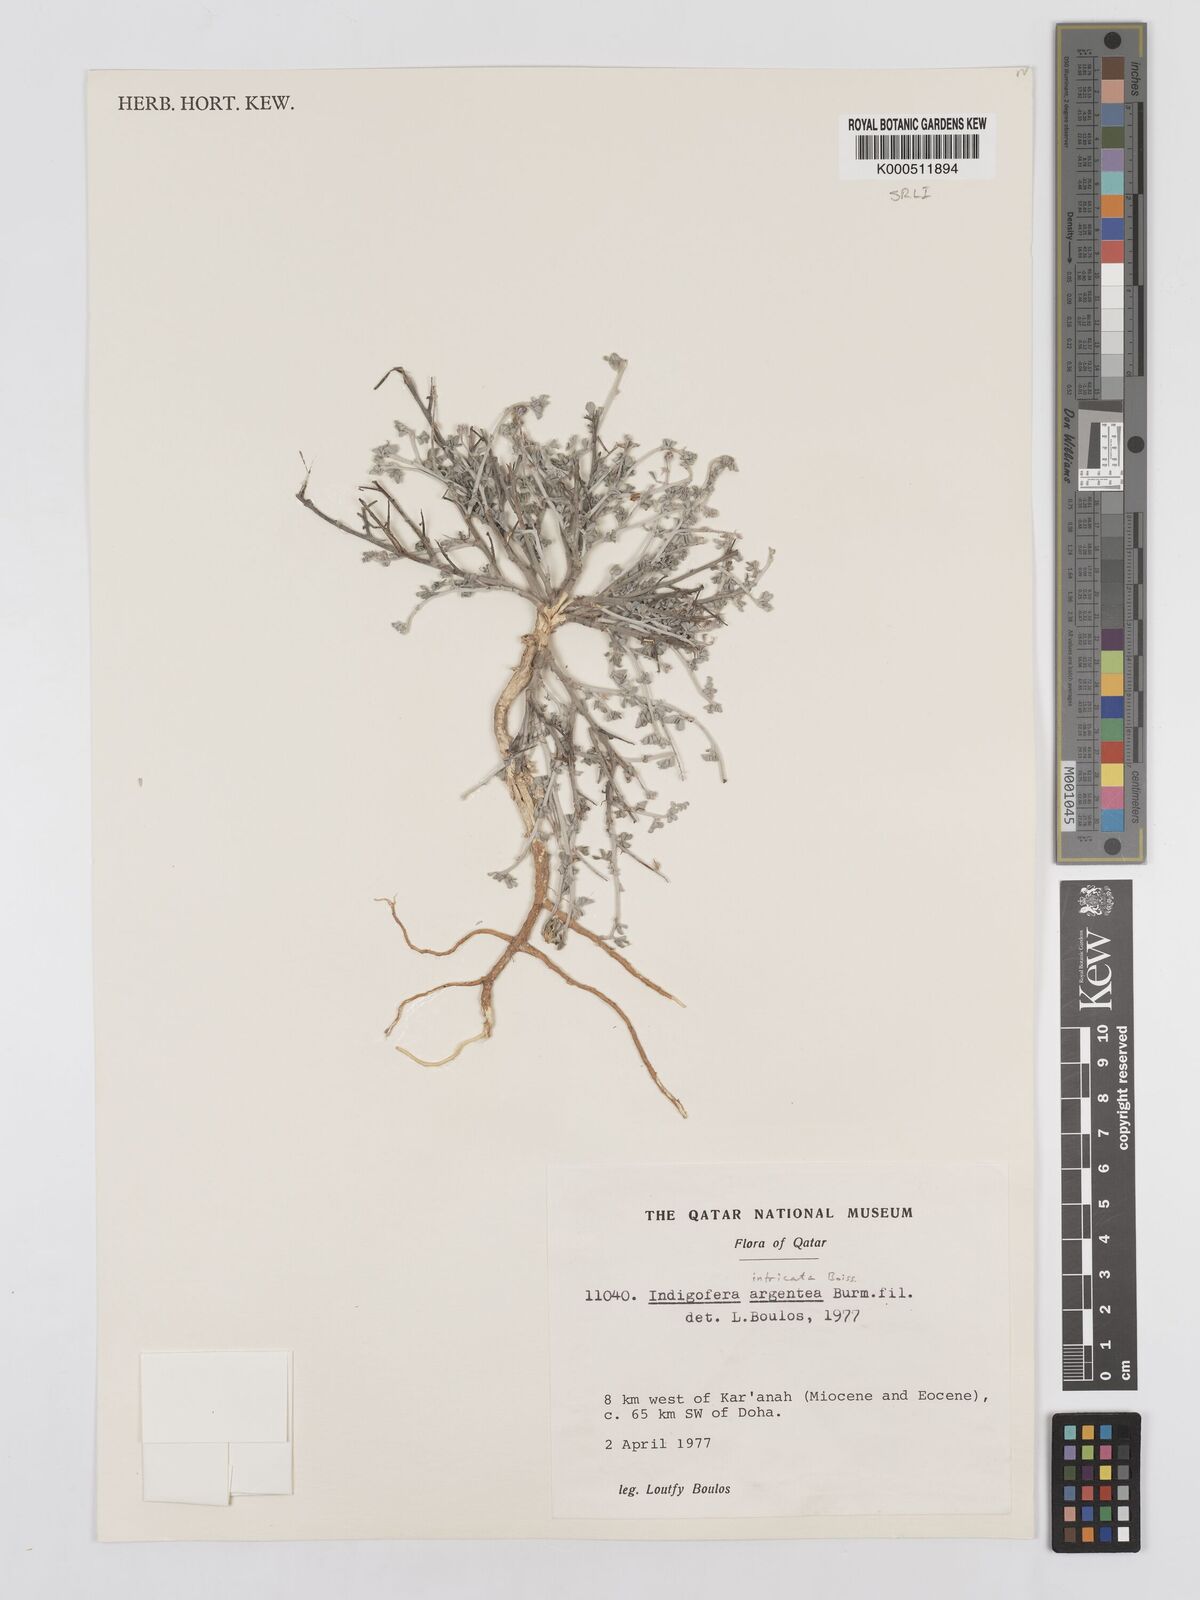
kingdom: Plantae
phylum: Tracheophyta
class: Magnoliopsida
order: Fabales
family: Fabaceae
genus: Indigofera
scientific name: Indigofera intricata
